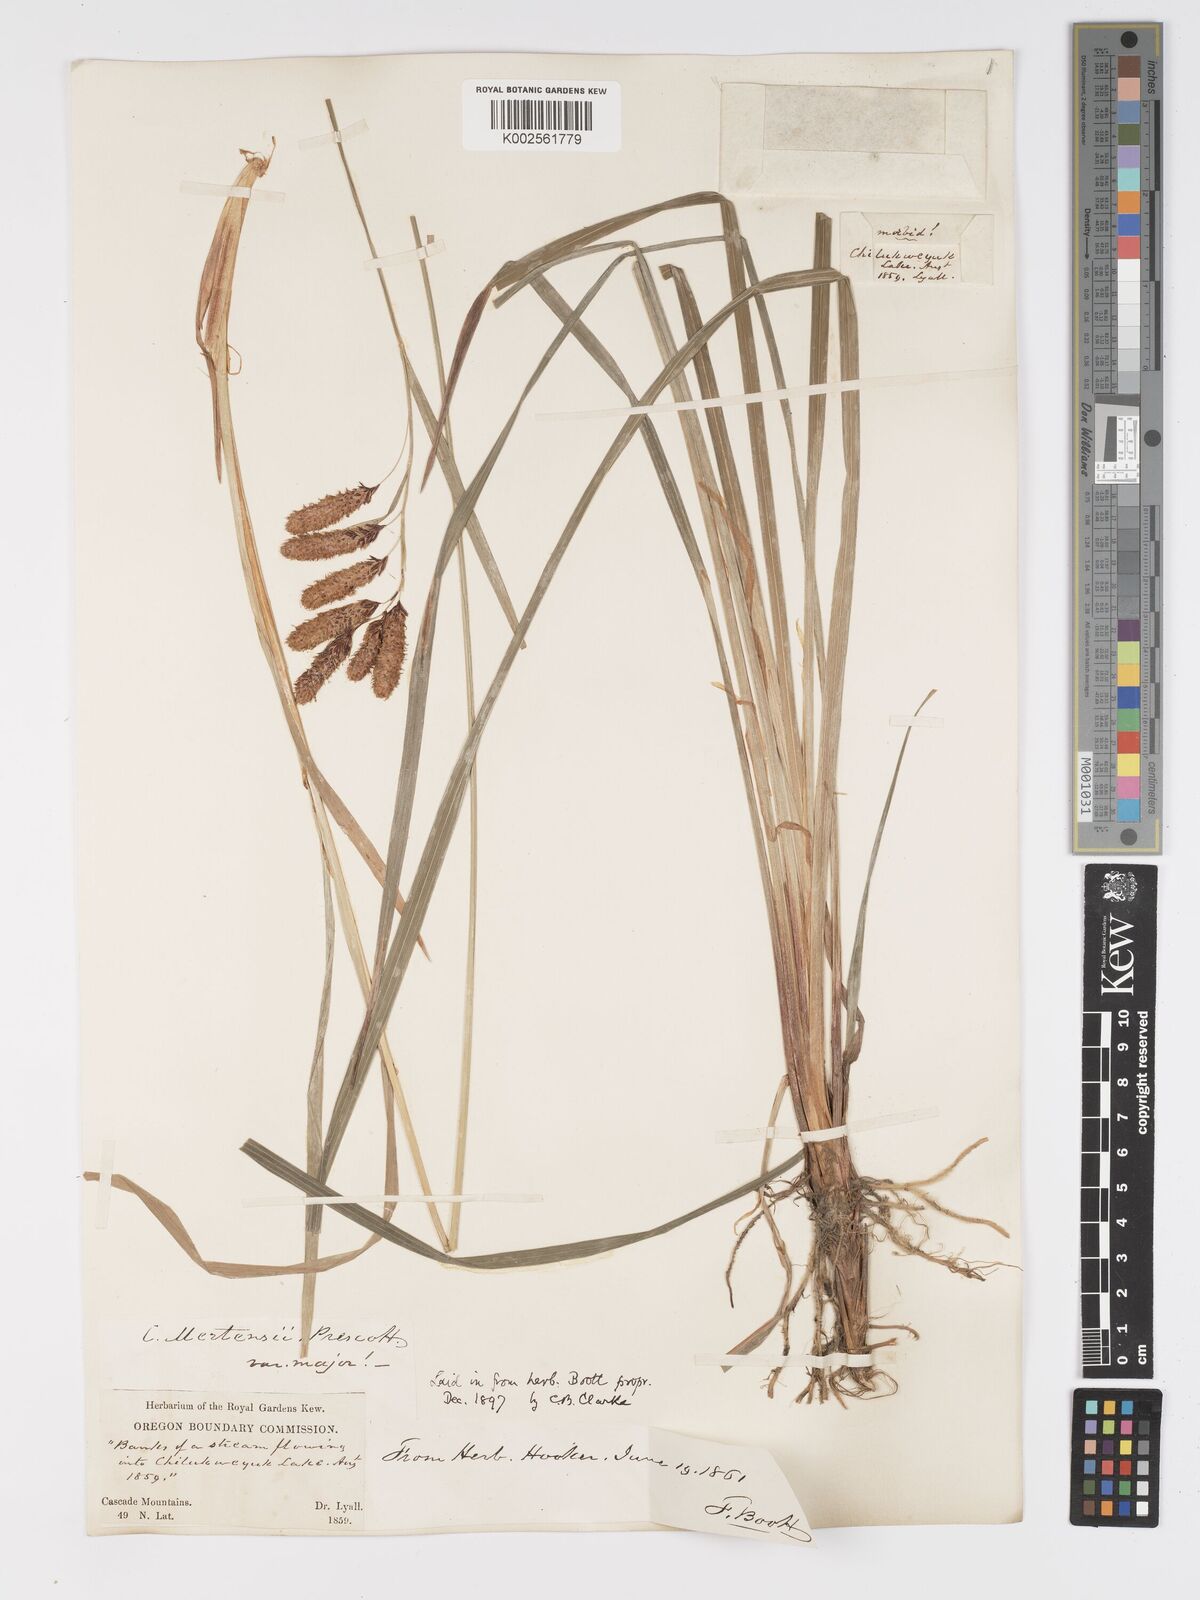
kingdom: Plantae
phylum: Tracheophyta
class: Liliopsida
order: Poales
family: Cyperaceae
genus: Carex
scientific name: Carex mertensii
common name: Mertens' sedge
